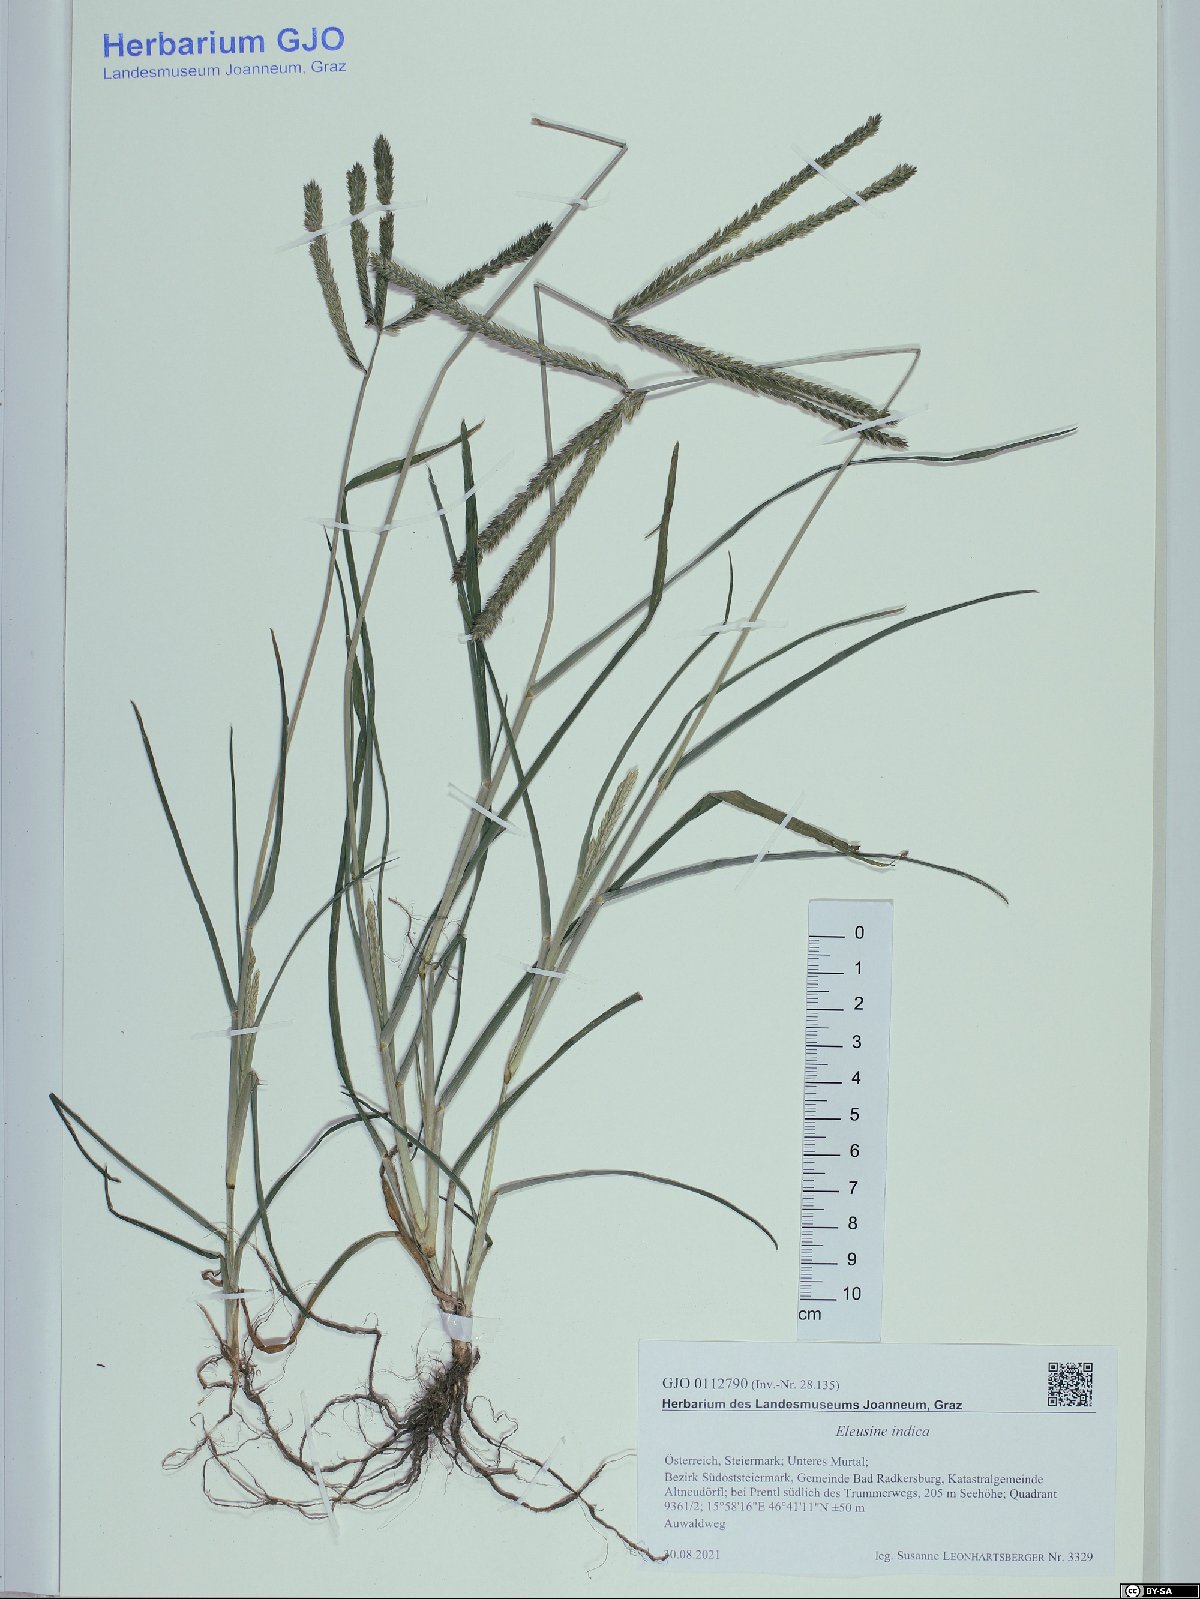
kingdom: Plantae
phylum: Tracheophyta
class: Liliopsida
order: Poales
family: Poaceae
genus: Eleusine
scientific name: Eleusine indica
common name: Yard-grass
